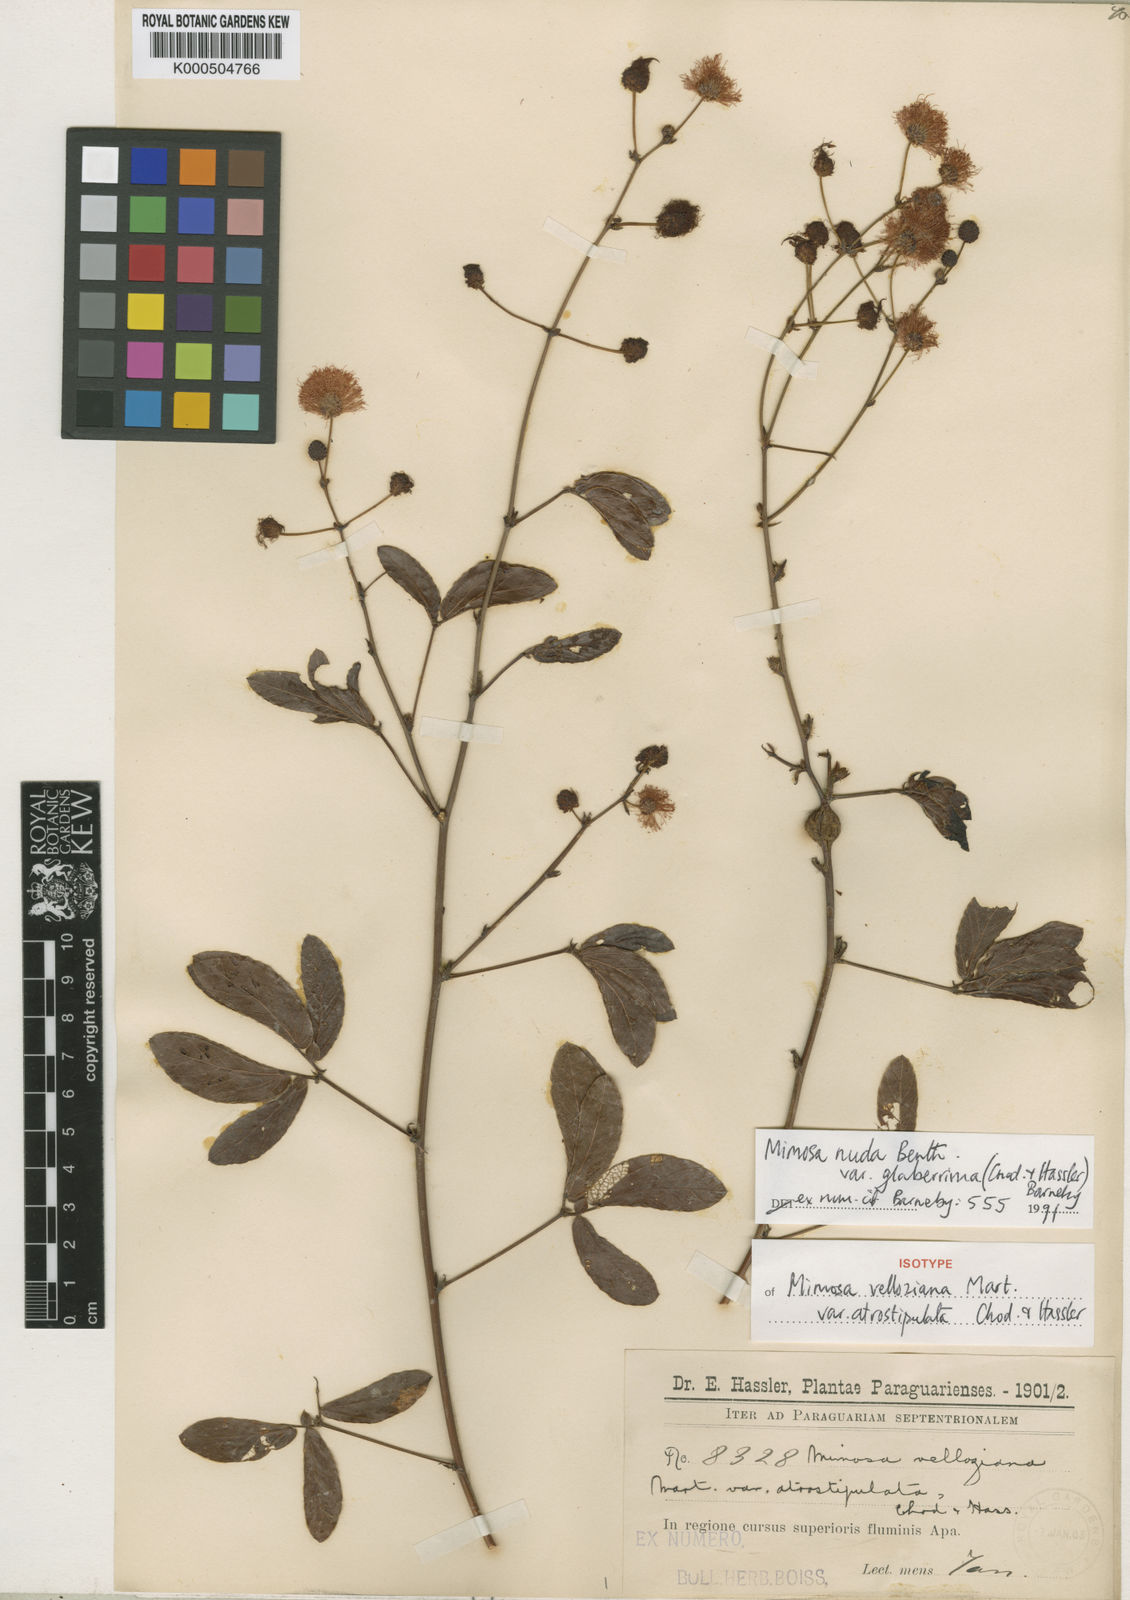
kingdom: Plantae
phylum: Tracheophyta
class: Magnoliopsida
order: Fabales
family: Fabaceae
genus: Mimosa
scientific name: Mimosa debilis
